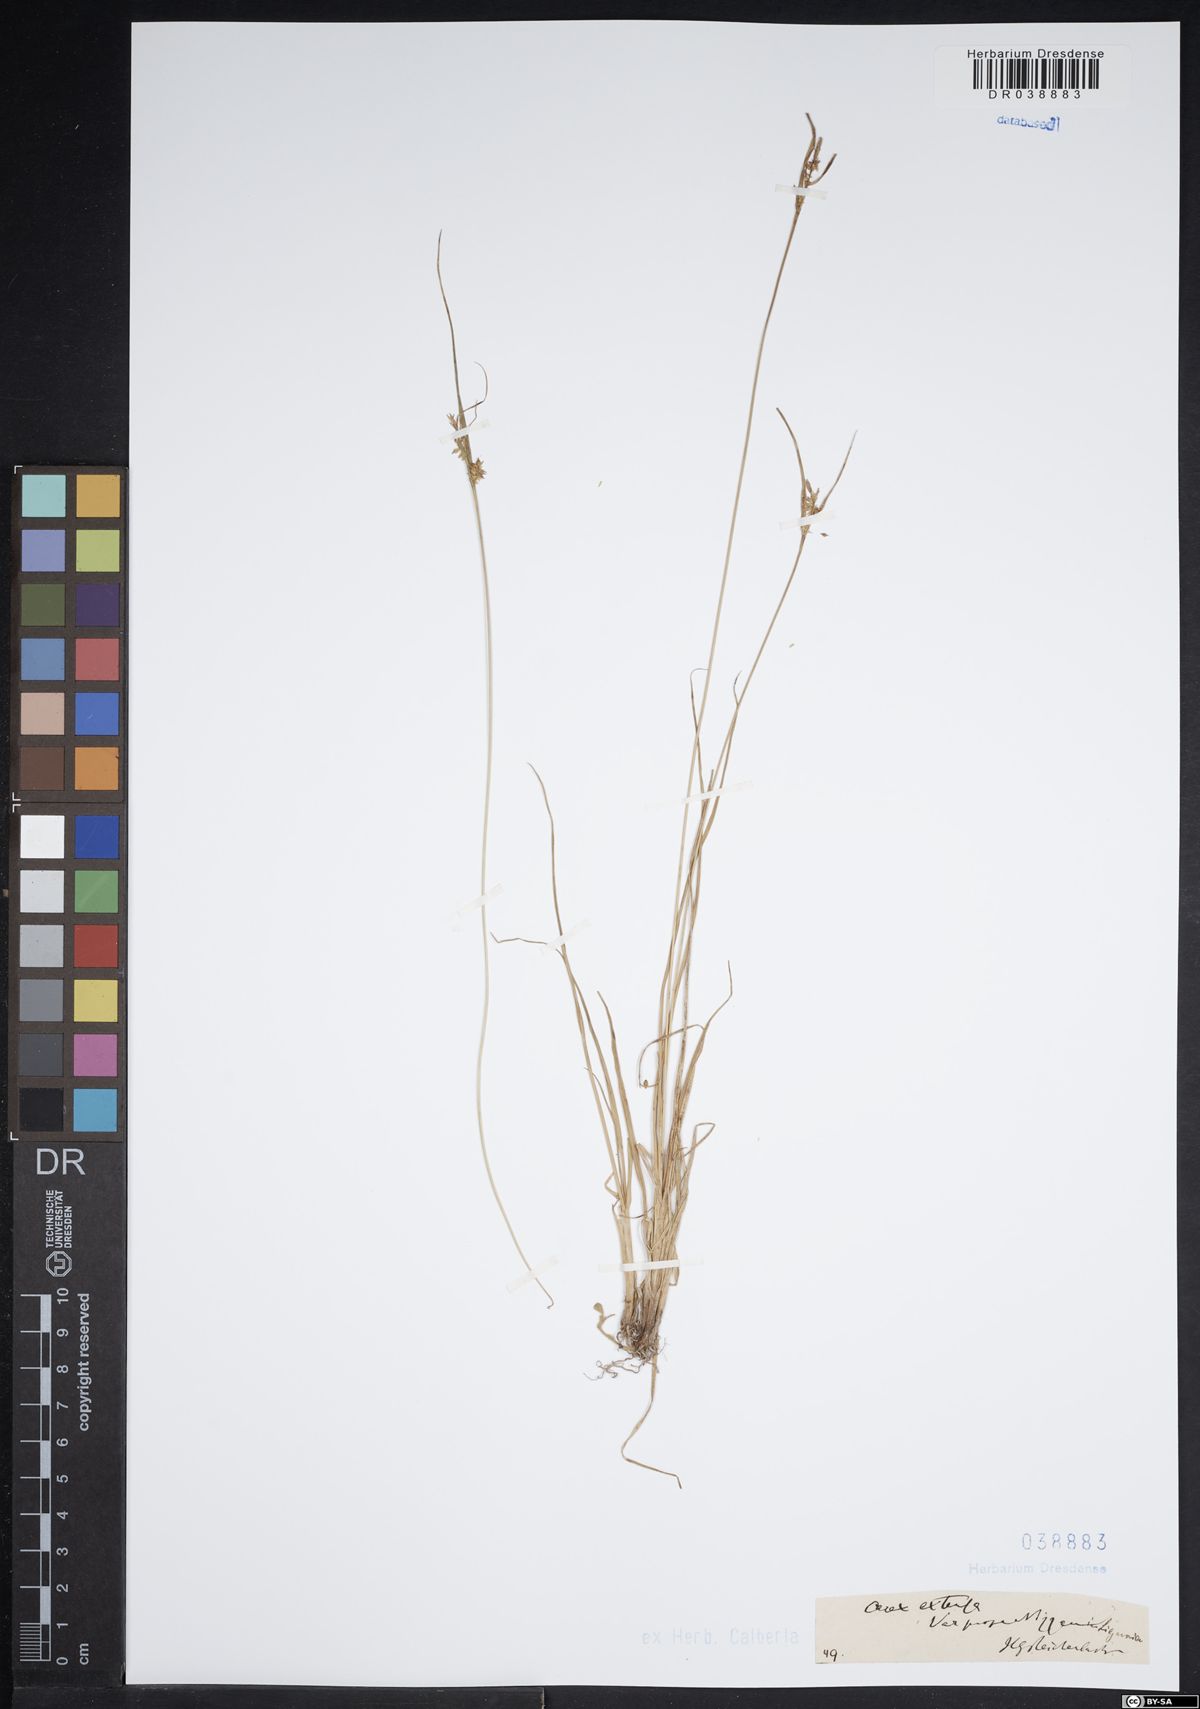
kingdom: Plantae
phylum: Tracheophyta
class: Liliopsida
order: Poales
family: Cyperaceae
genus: Carex
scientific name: Carex extensa
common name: Long-bracted sedge
